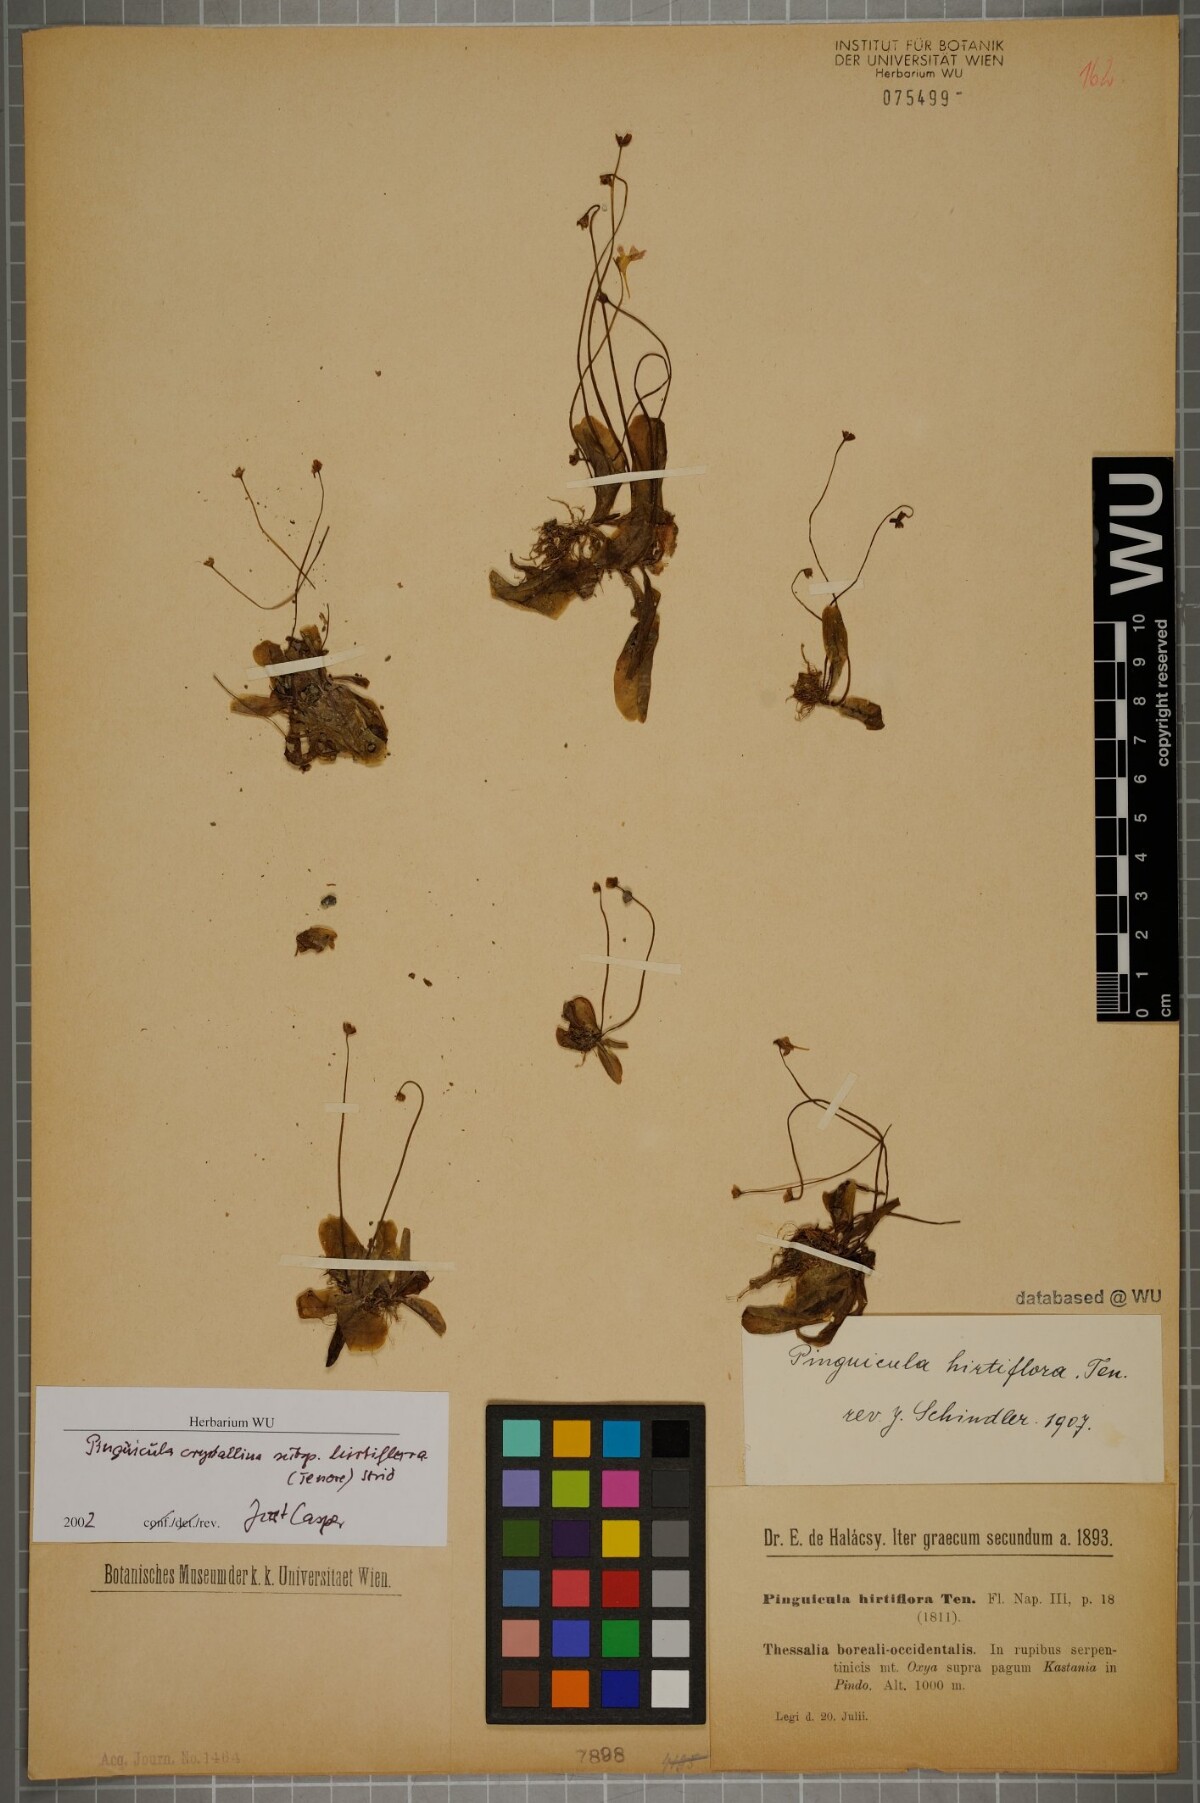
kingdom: Plantae
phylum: Tracheophyta
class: Magnoliopsida
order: Lamiales
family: Lentibulariaceae
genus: Pinguicula
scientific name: Pinguicula crystallina
